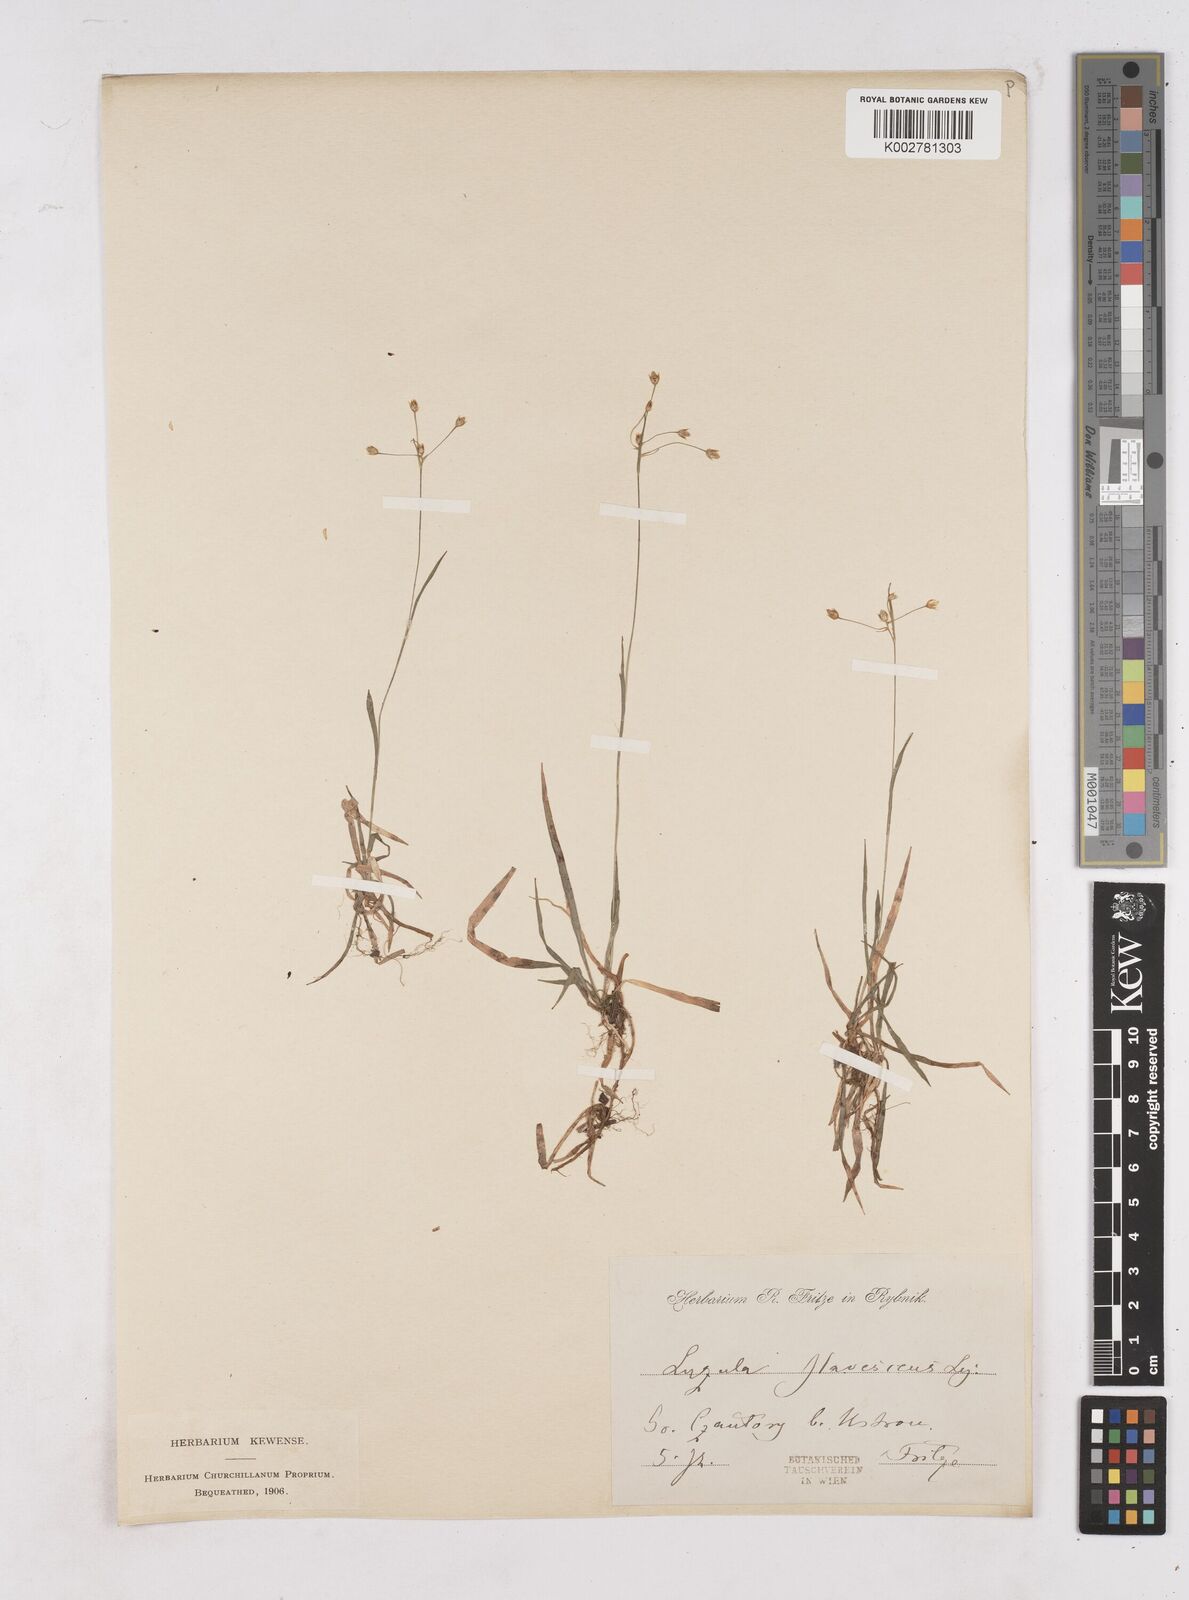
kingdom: Plantae
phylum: Tracheophyta
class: Liliopsida
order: Poales
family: Juncaceae
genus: Luzula
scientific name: Luzula luzulina
